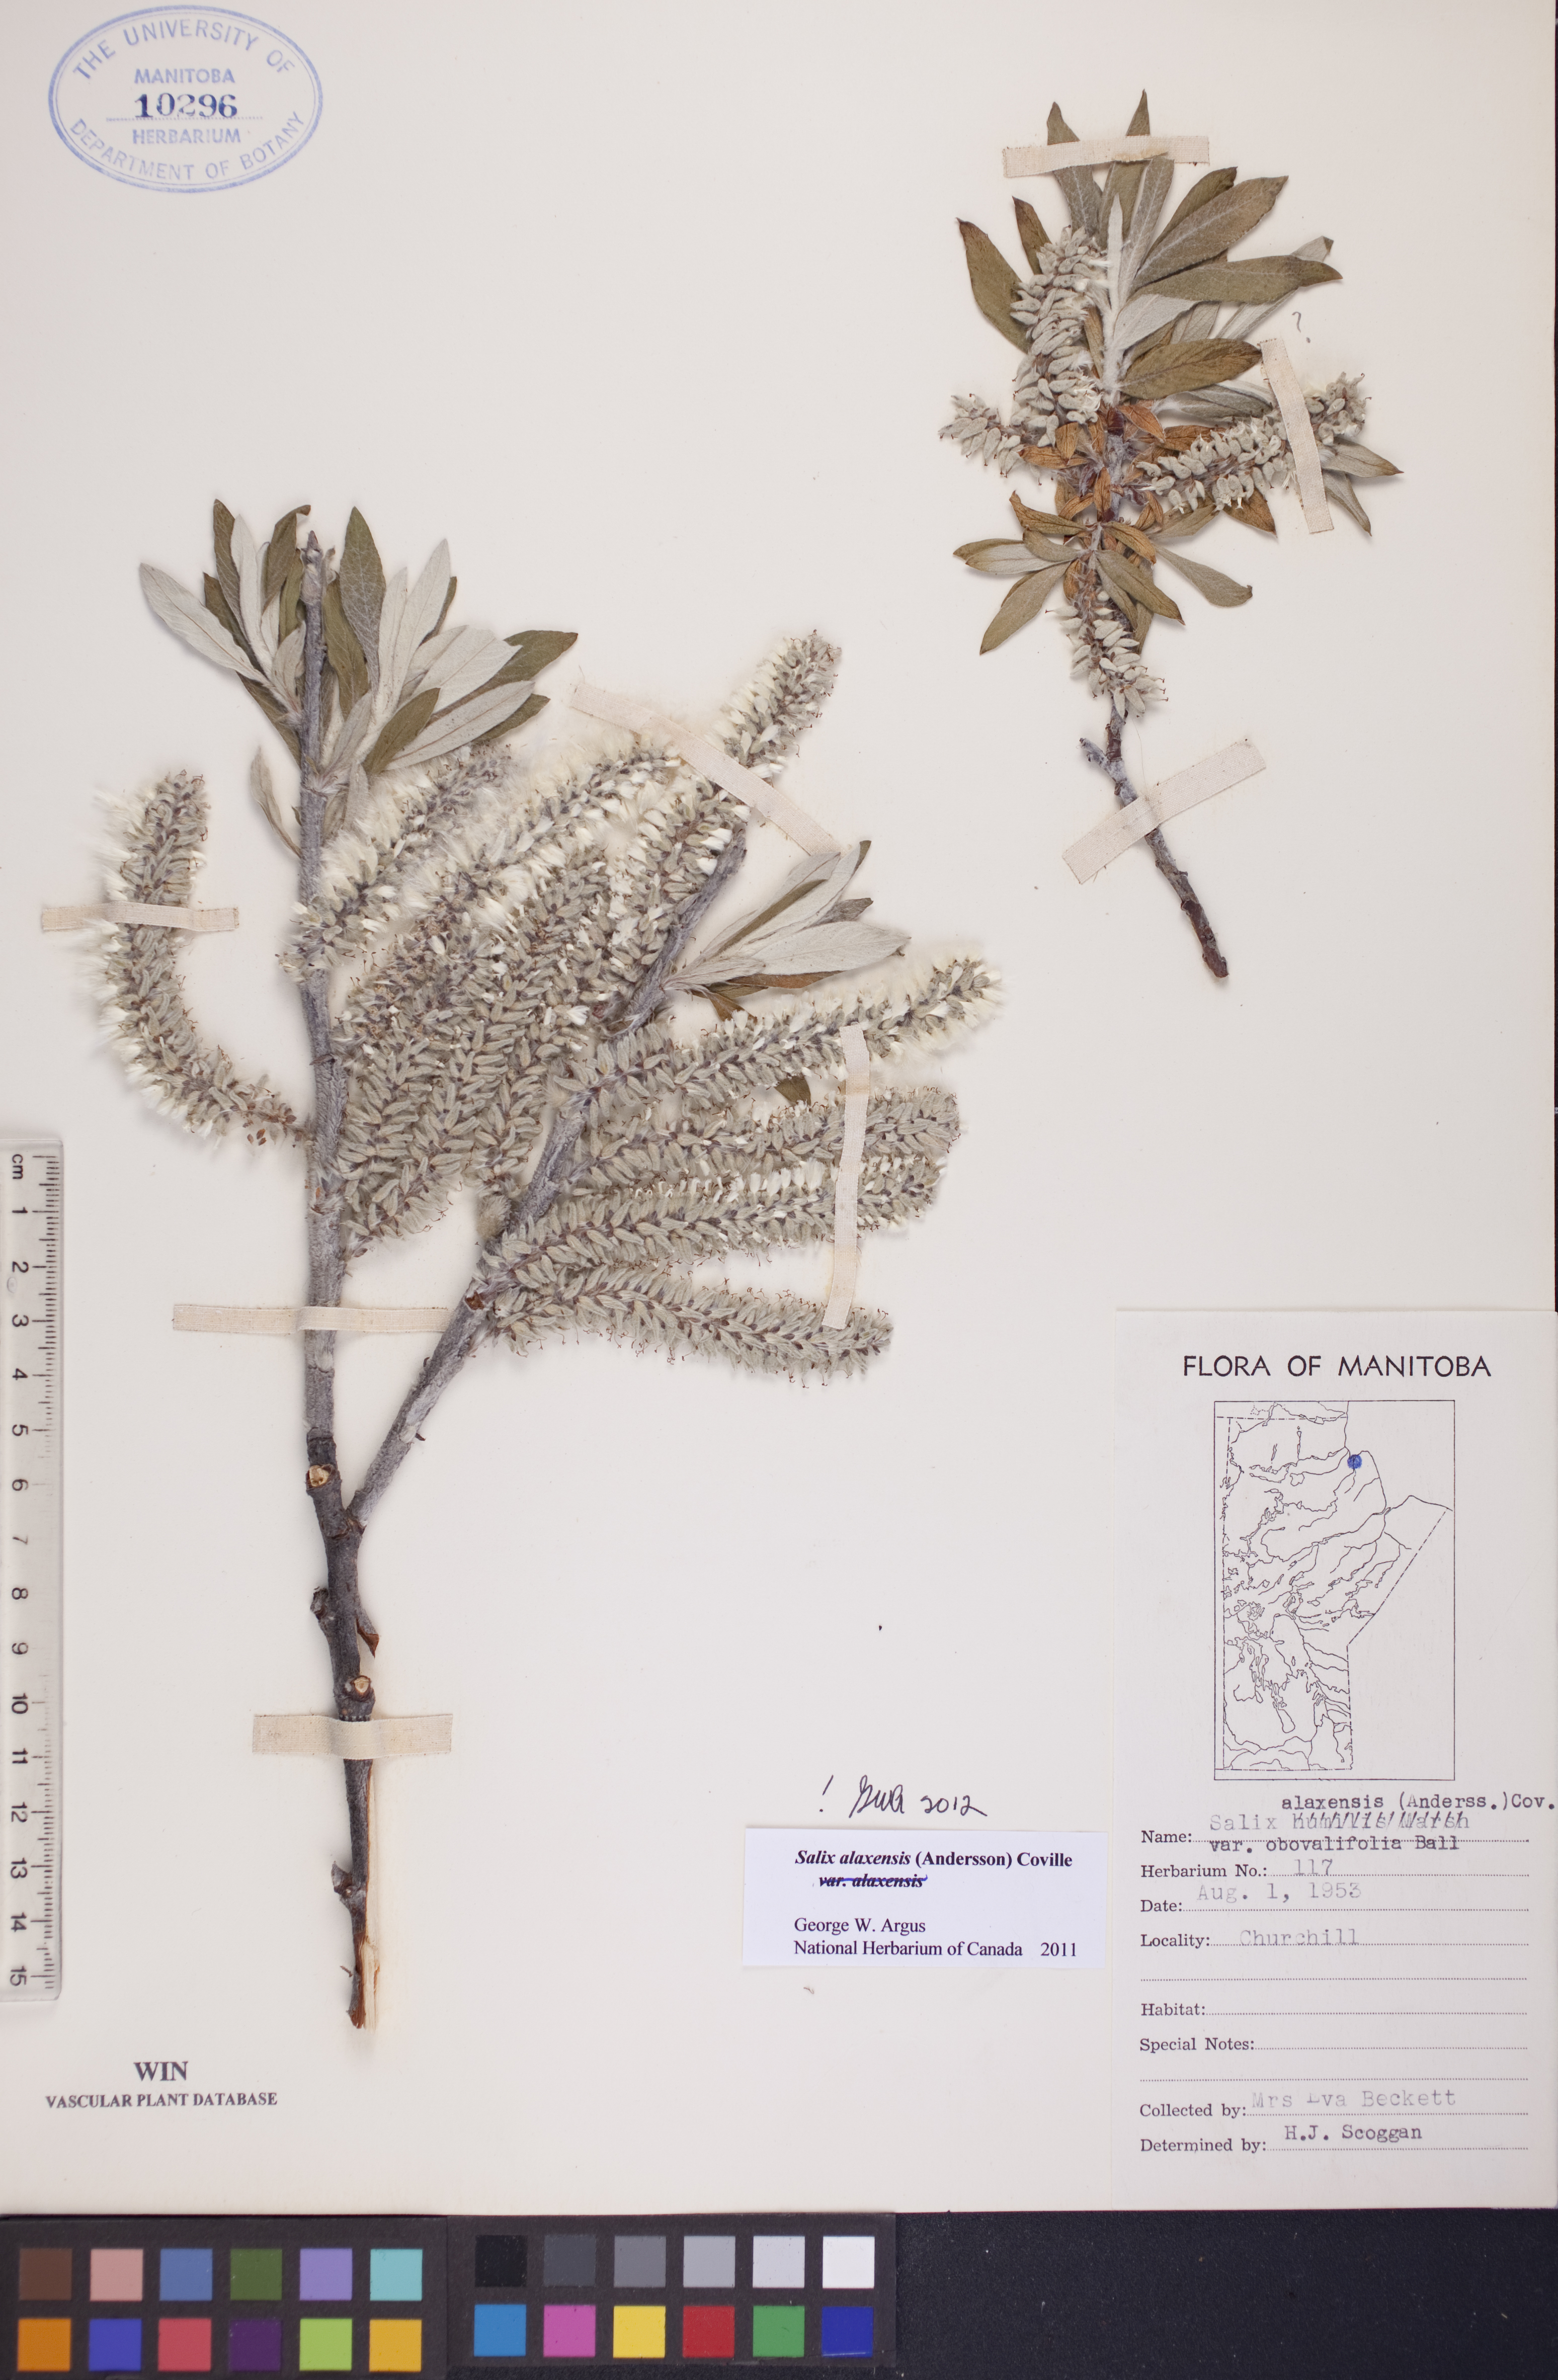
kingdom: Plantae
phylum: Tracheophyta
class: Magnoliopsida
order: Malpighiales
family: Salicaceae
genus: Salix
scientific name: Salix alaxensis
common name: Feltleaf willow
